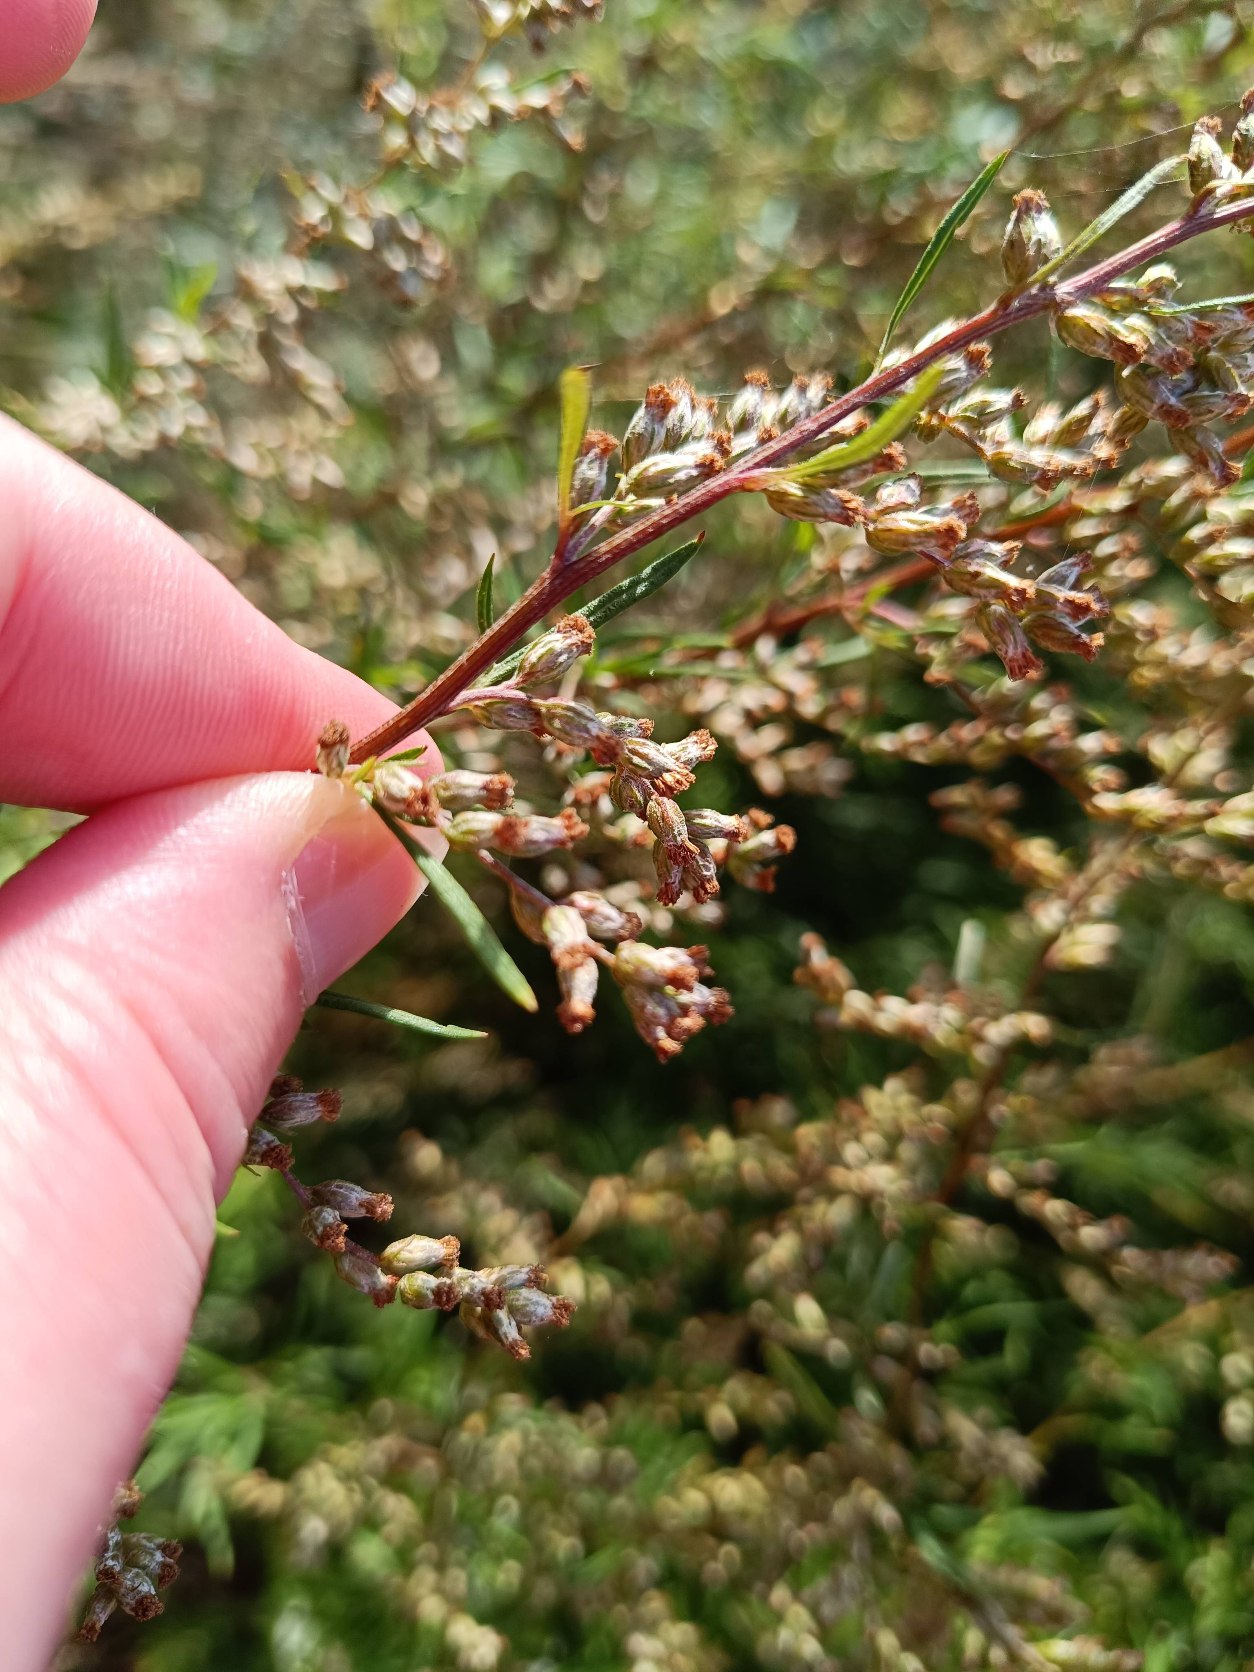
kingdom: Plantae
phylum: Tracheophyta
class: Magnoliopsida
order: Asterales
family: Asteraceae
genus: Artemisia
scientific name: Artemisia vulgaris
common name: Grå-bynke
